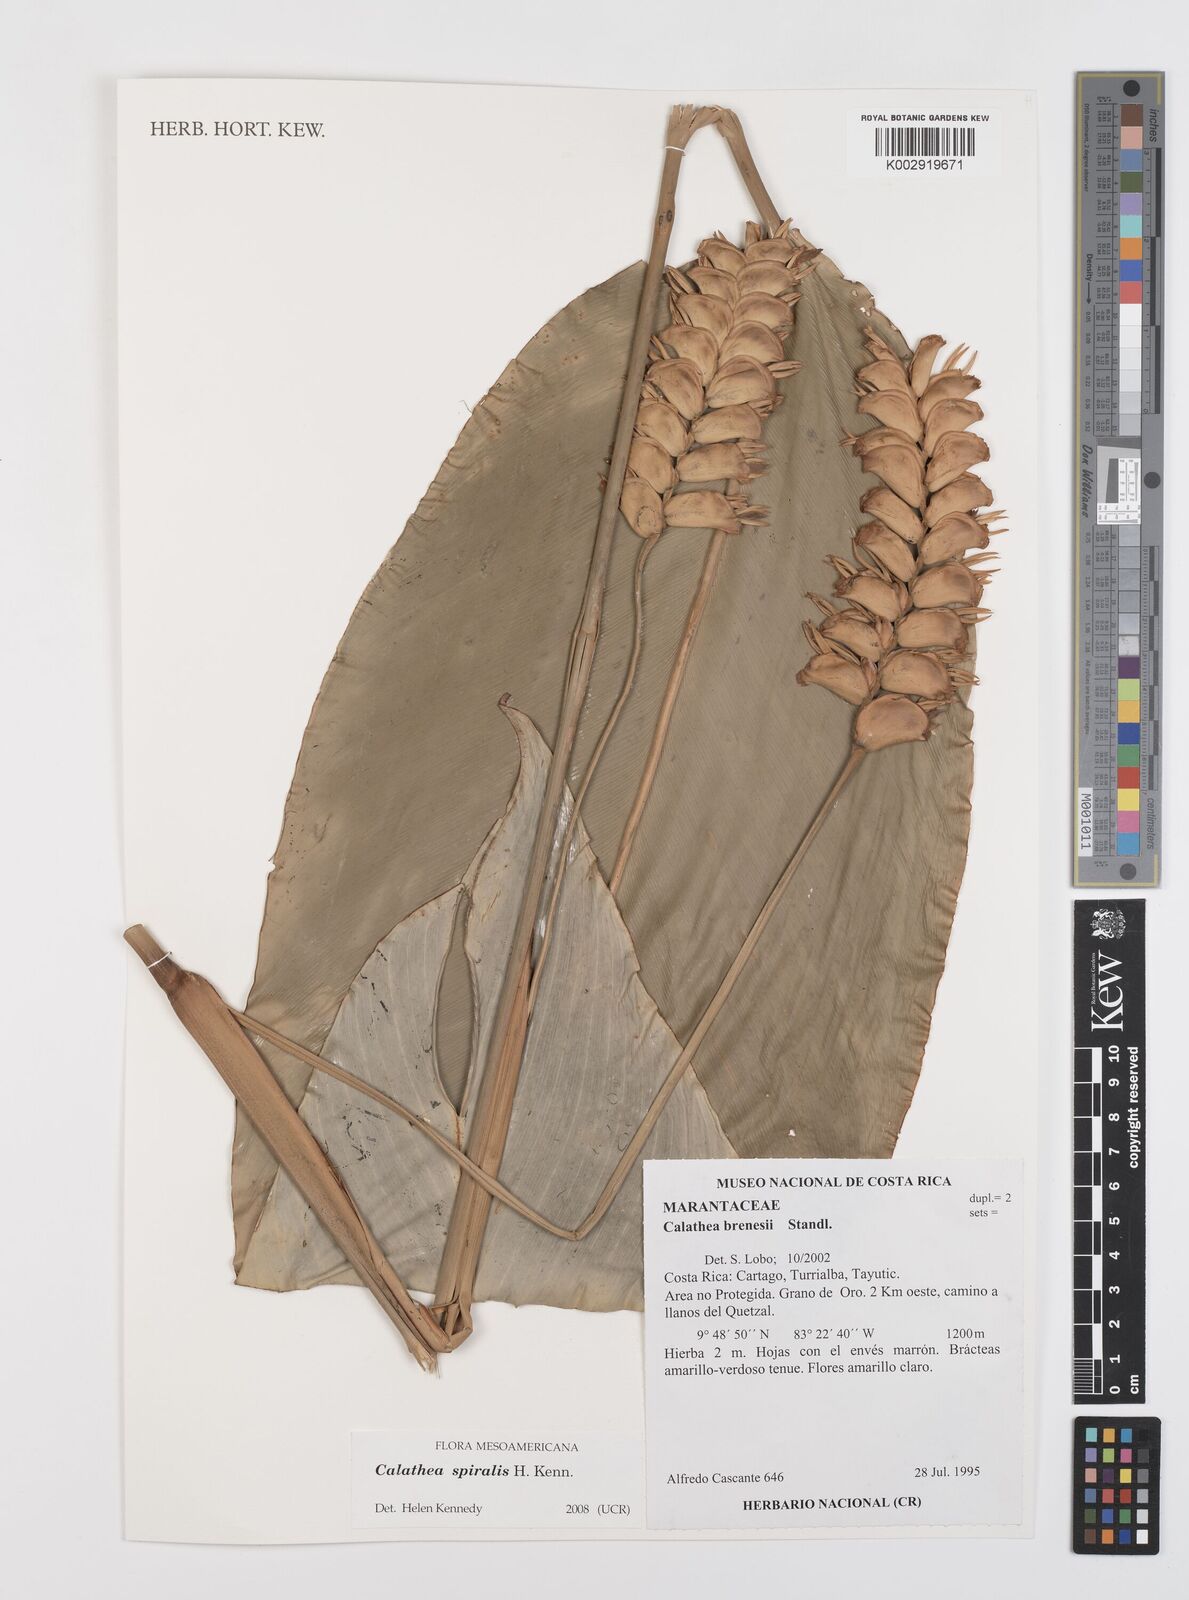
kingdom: Plantae
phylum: Tracheophyta
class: Liliopsida
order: Zingiberales
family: Marantaceae
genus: Calathea
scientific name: Calathea spiralis
